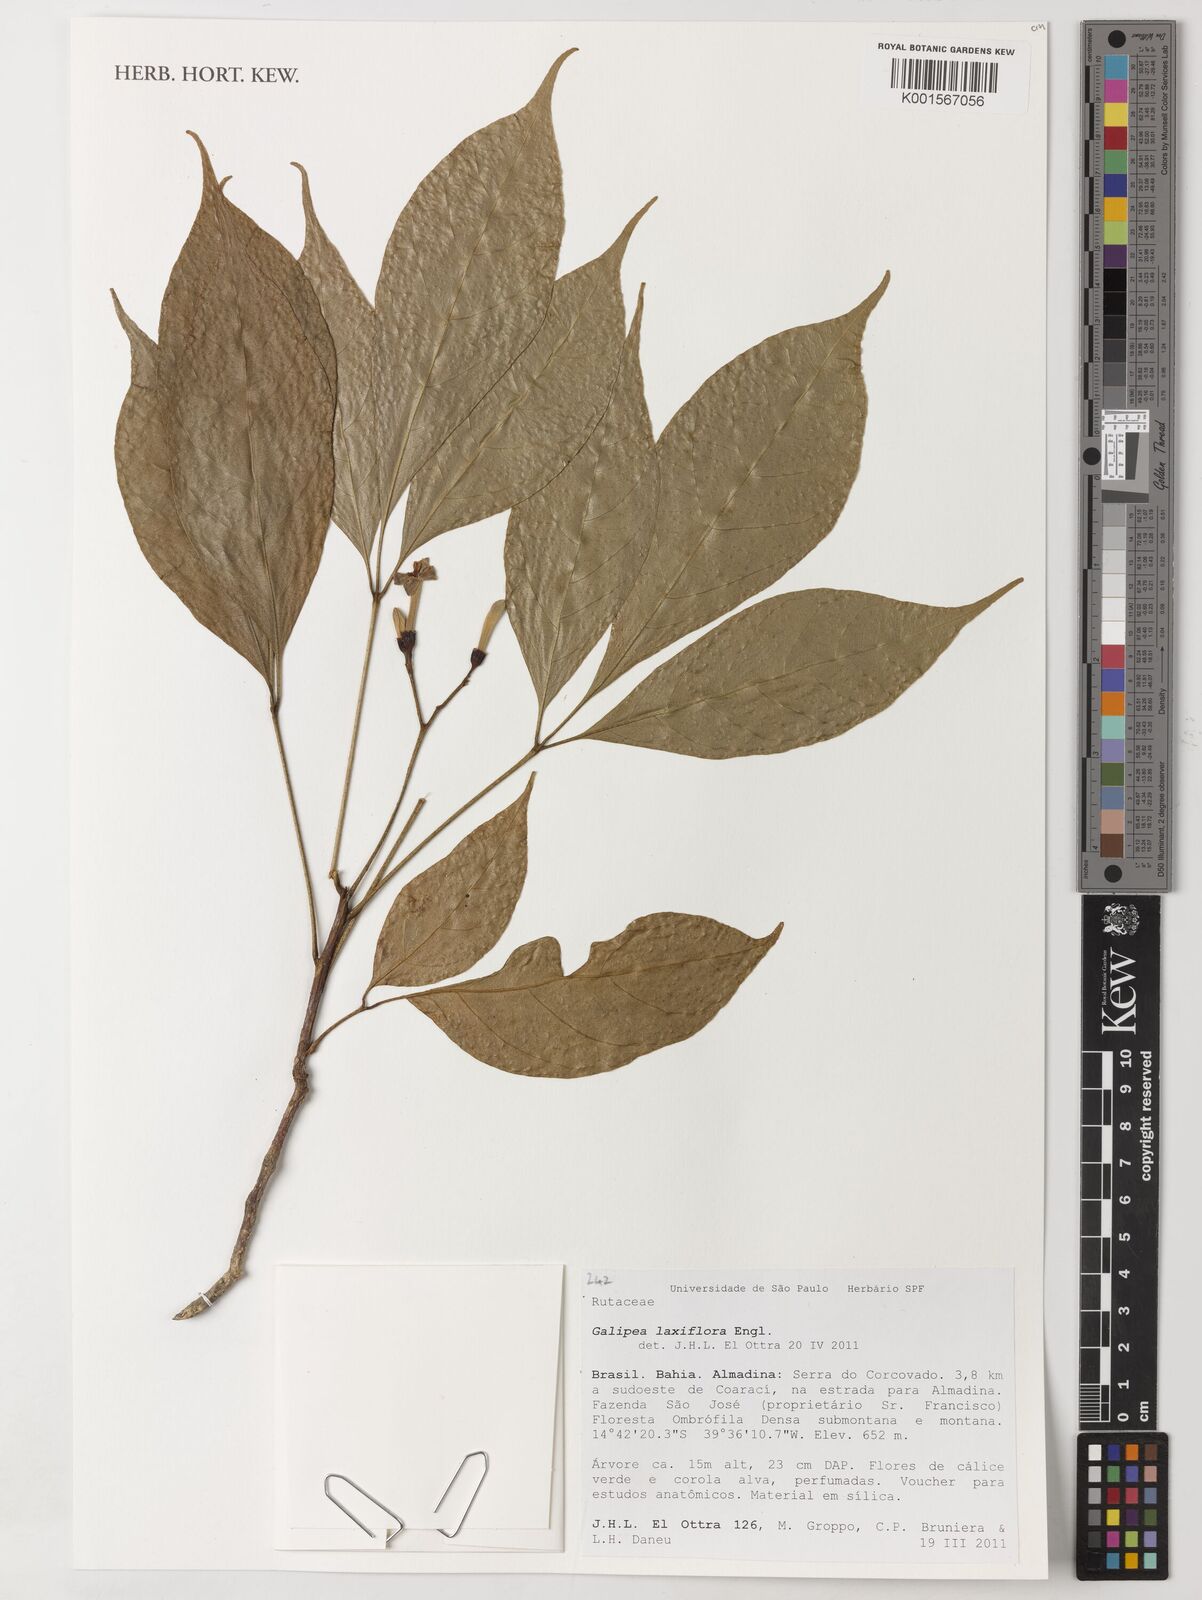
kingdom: Plantae
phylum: Tracheophyta
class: Magnoliopsida
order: Sapindales
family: Rutaceae
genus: Galipea
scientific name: Galipea laxiflora
